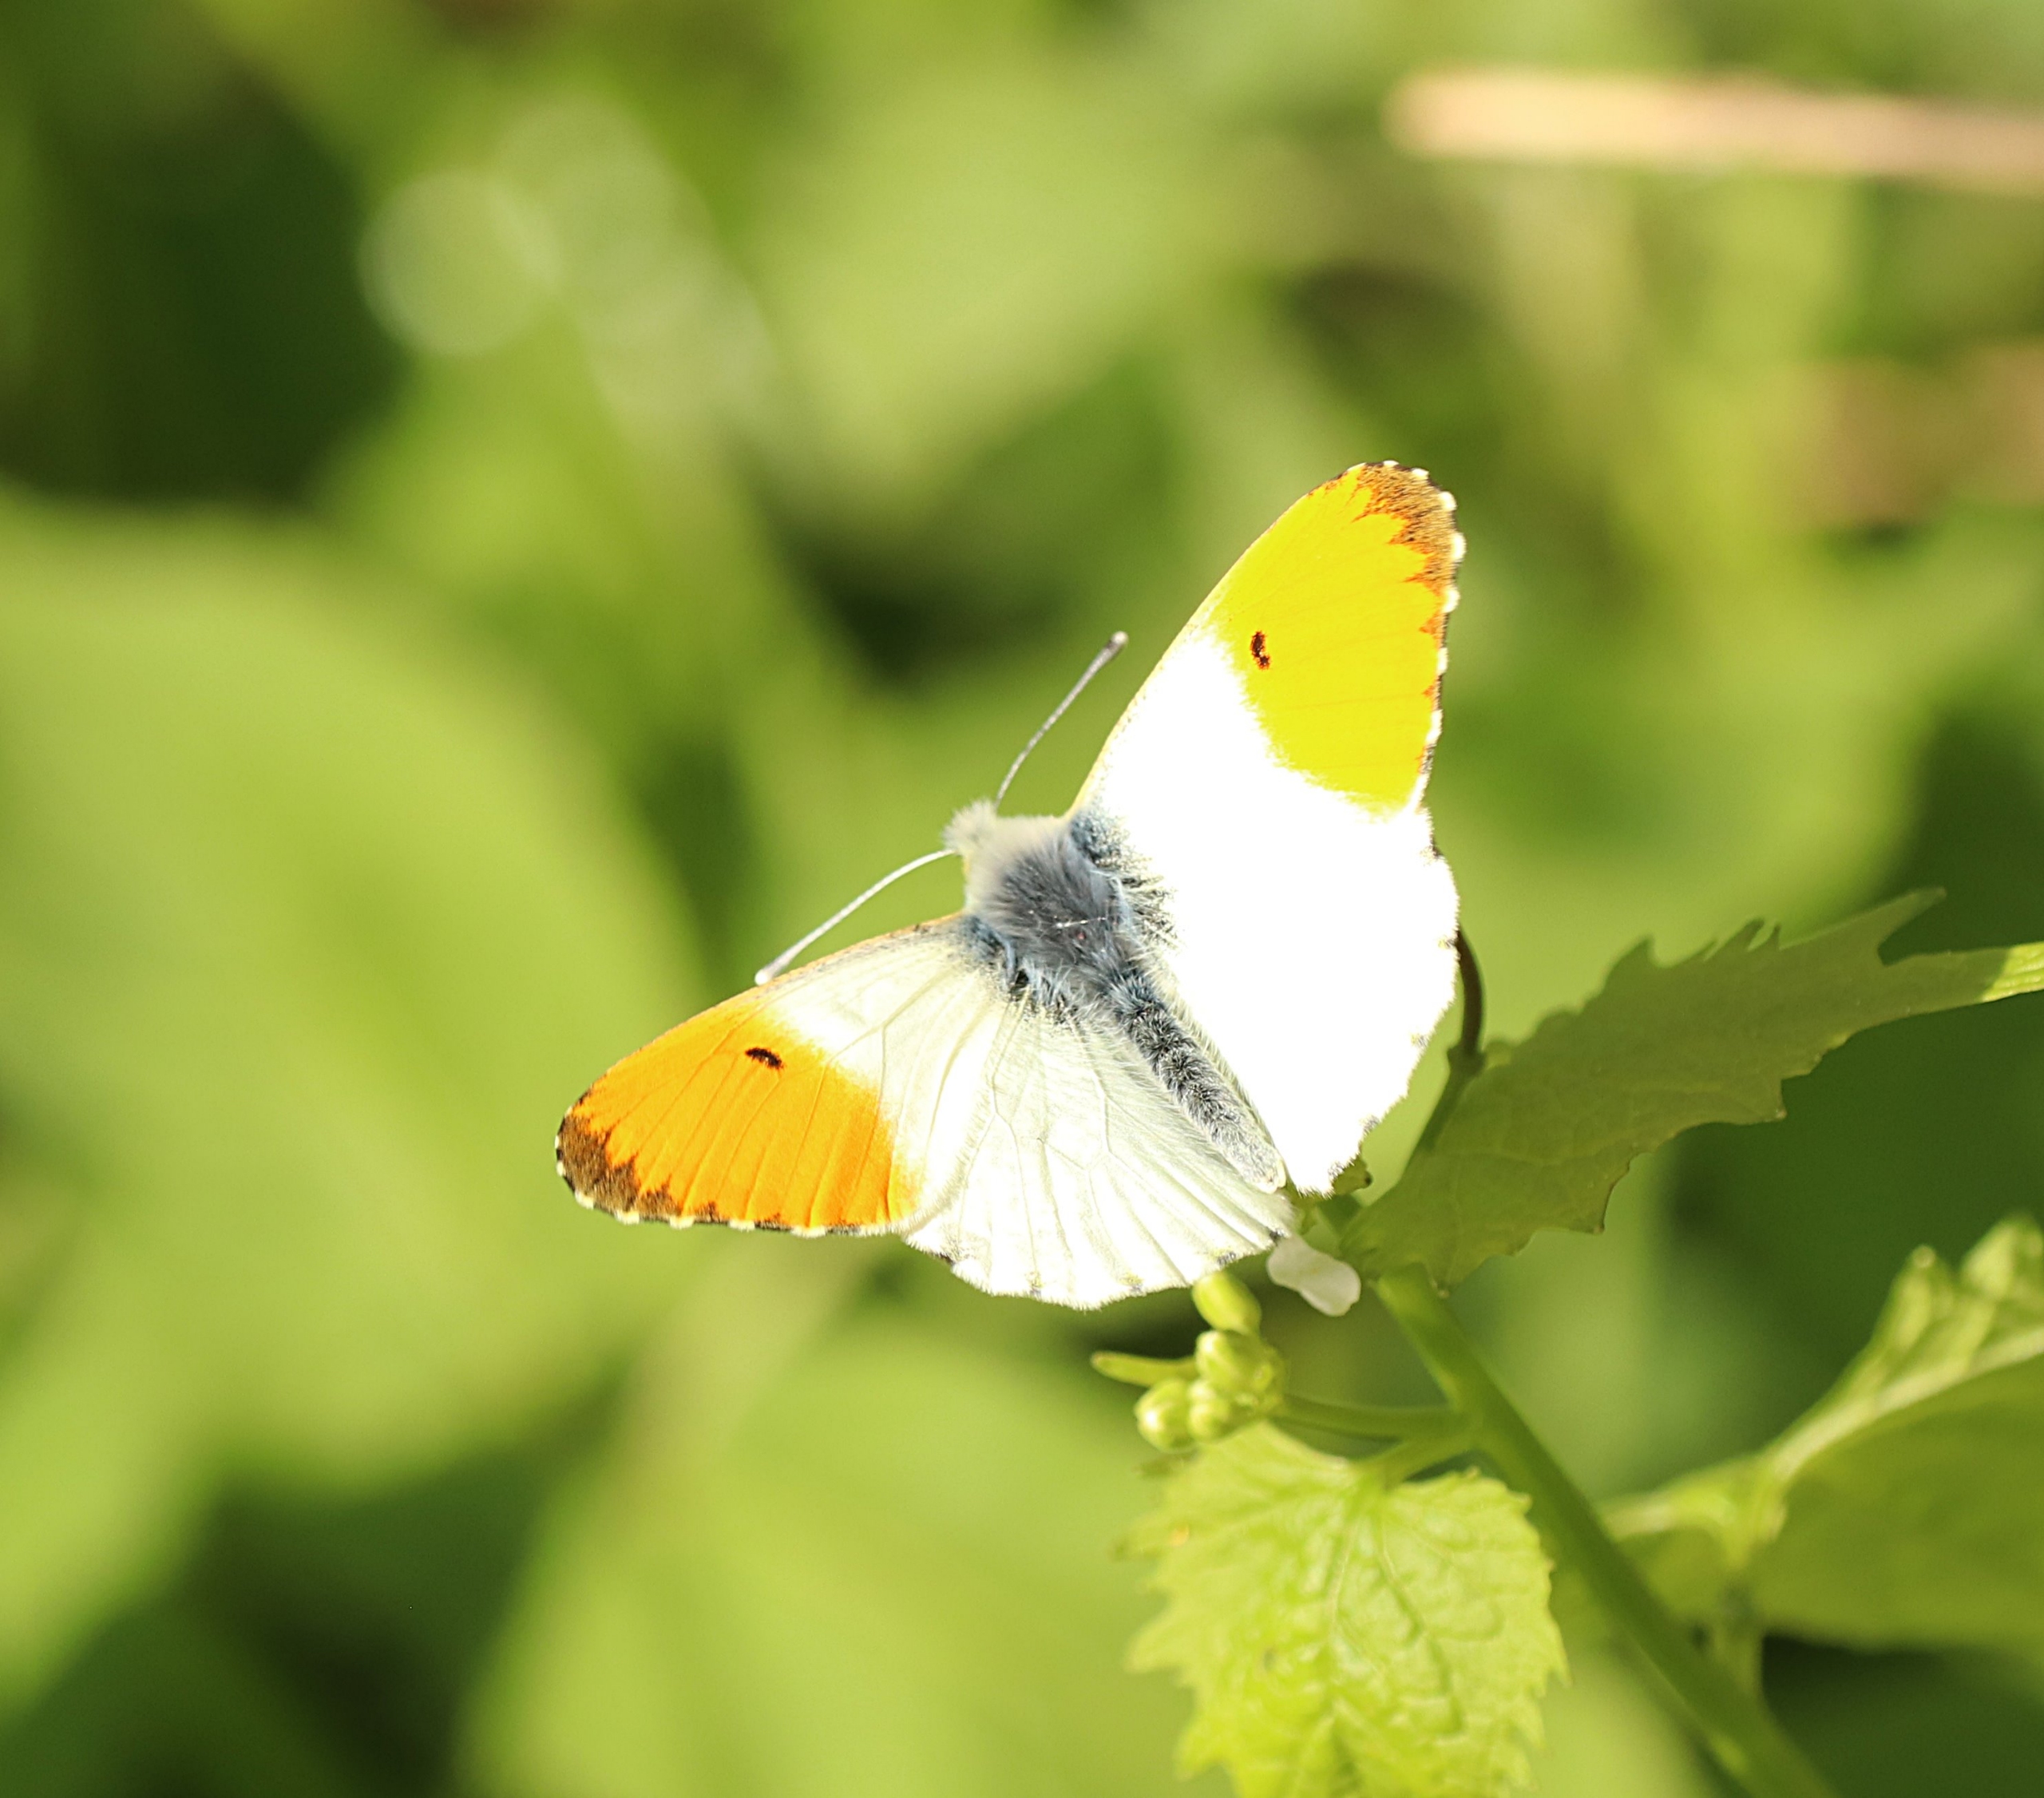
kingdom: Animalia
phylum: Arthropoda
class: Insecta
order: Lepidoptera
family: Pieridae
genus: Anthocharis
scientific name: Anthocharis cardamines
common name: Aurora
